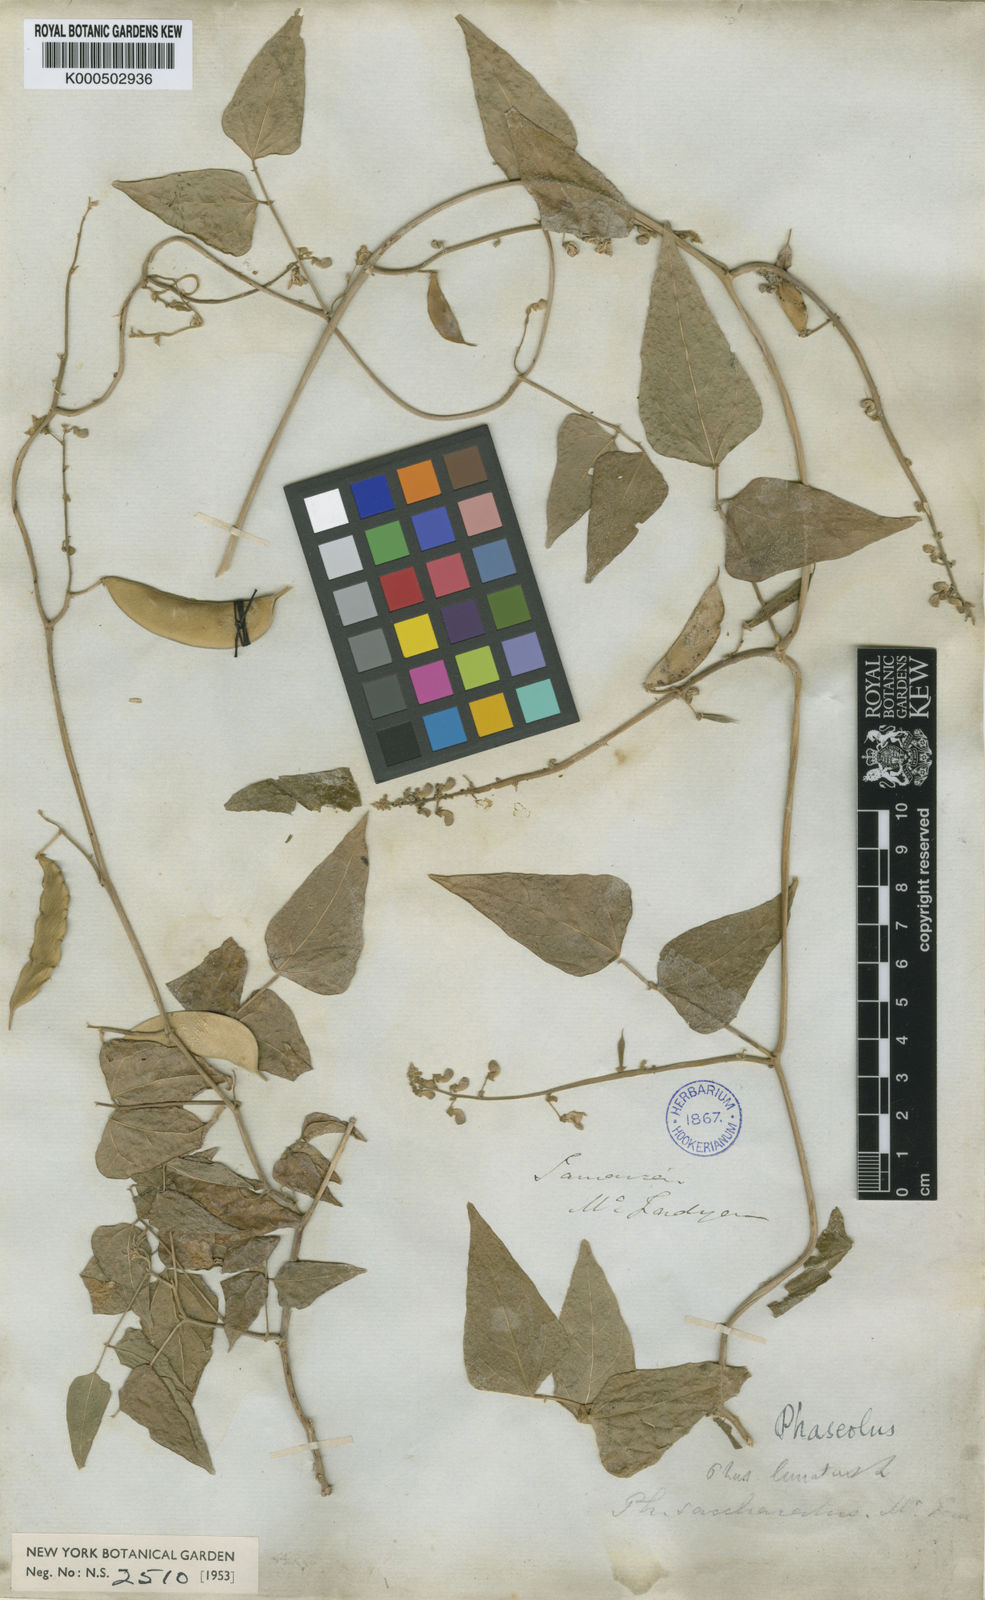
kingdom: Plantae
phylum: Tracheophyta
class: Magnoliopsida
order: Fabales
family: Fabaceae
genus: Phaseolus
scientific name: Phaseolus lunatus
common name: Sieva bean
